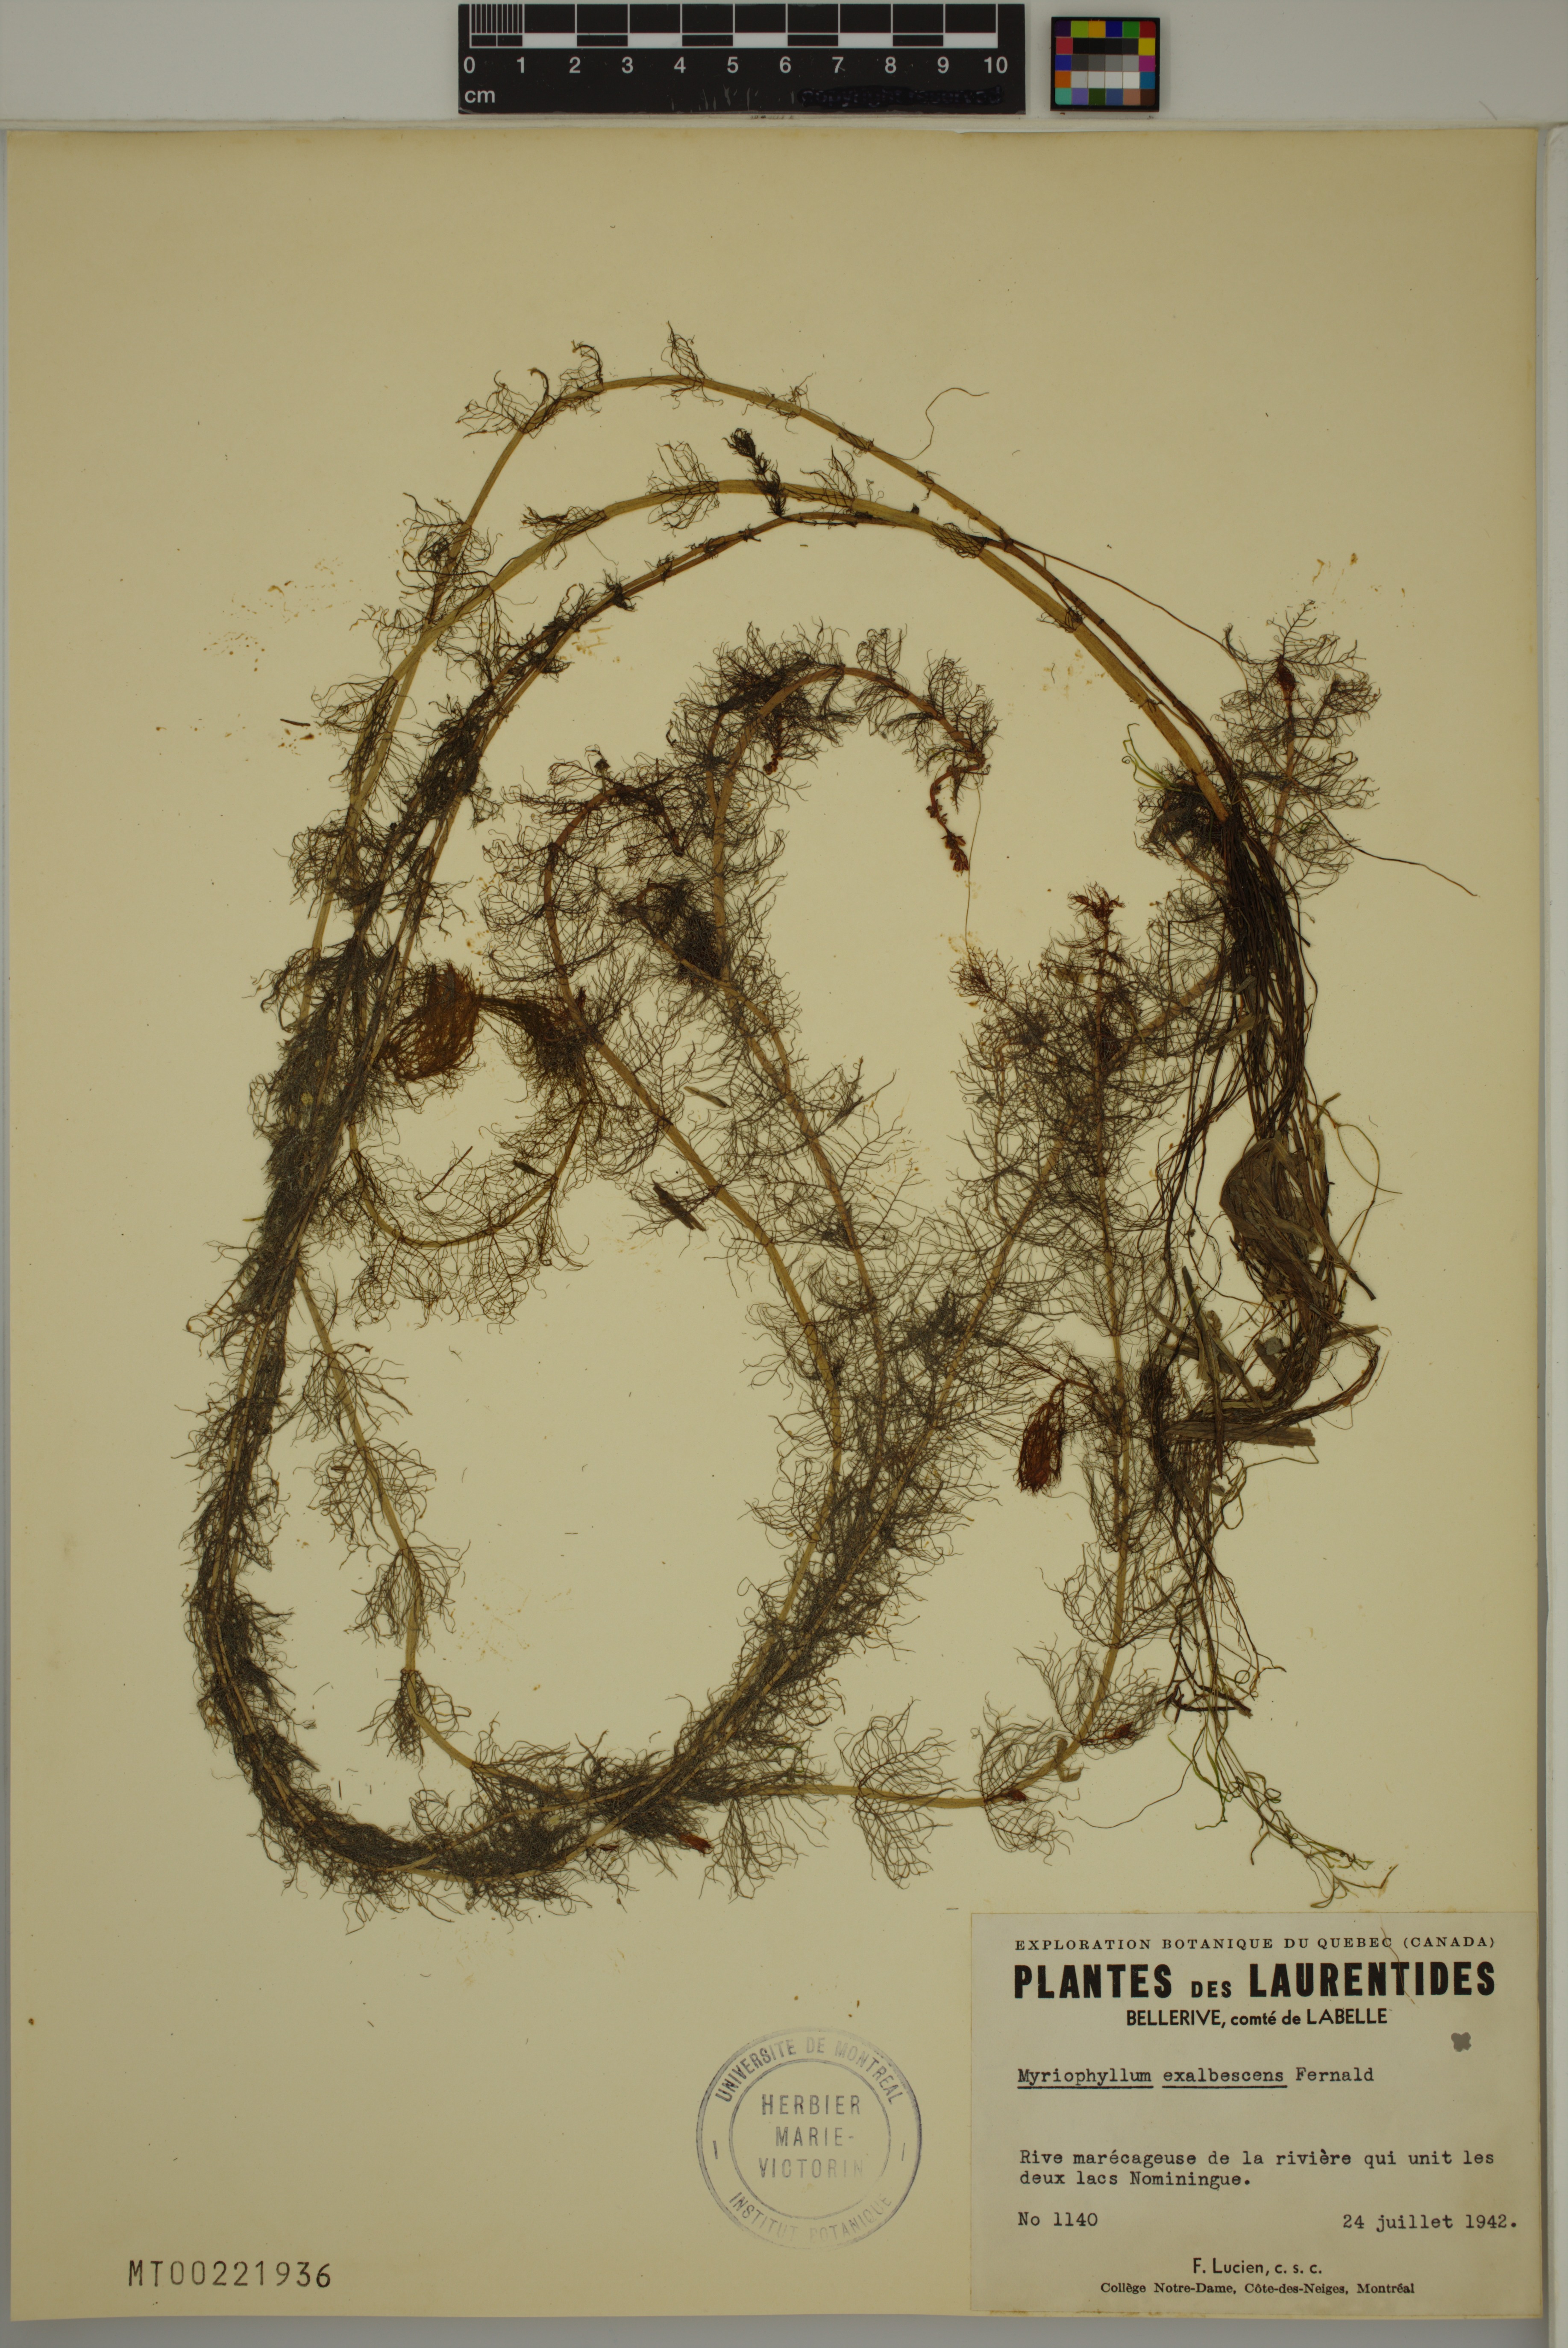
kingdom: Plantae
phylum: Tracheophyta
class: Magnoliopsida
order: Saxifragales
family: Haloragaceae
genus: Myriophyllum
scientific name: Myriophyllum sibiricum
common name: Siberian water-milfoil
